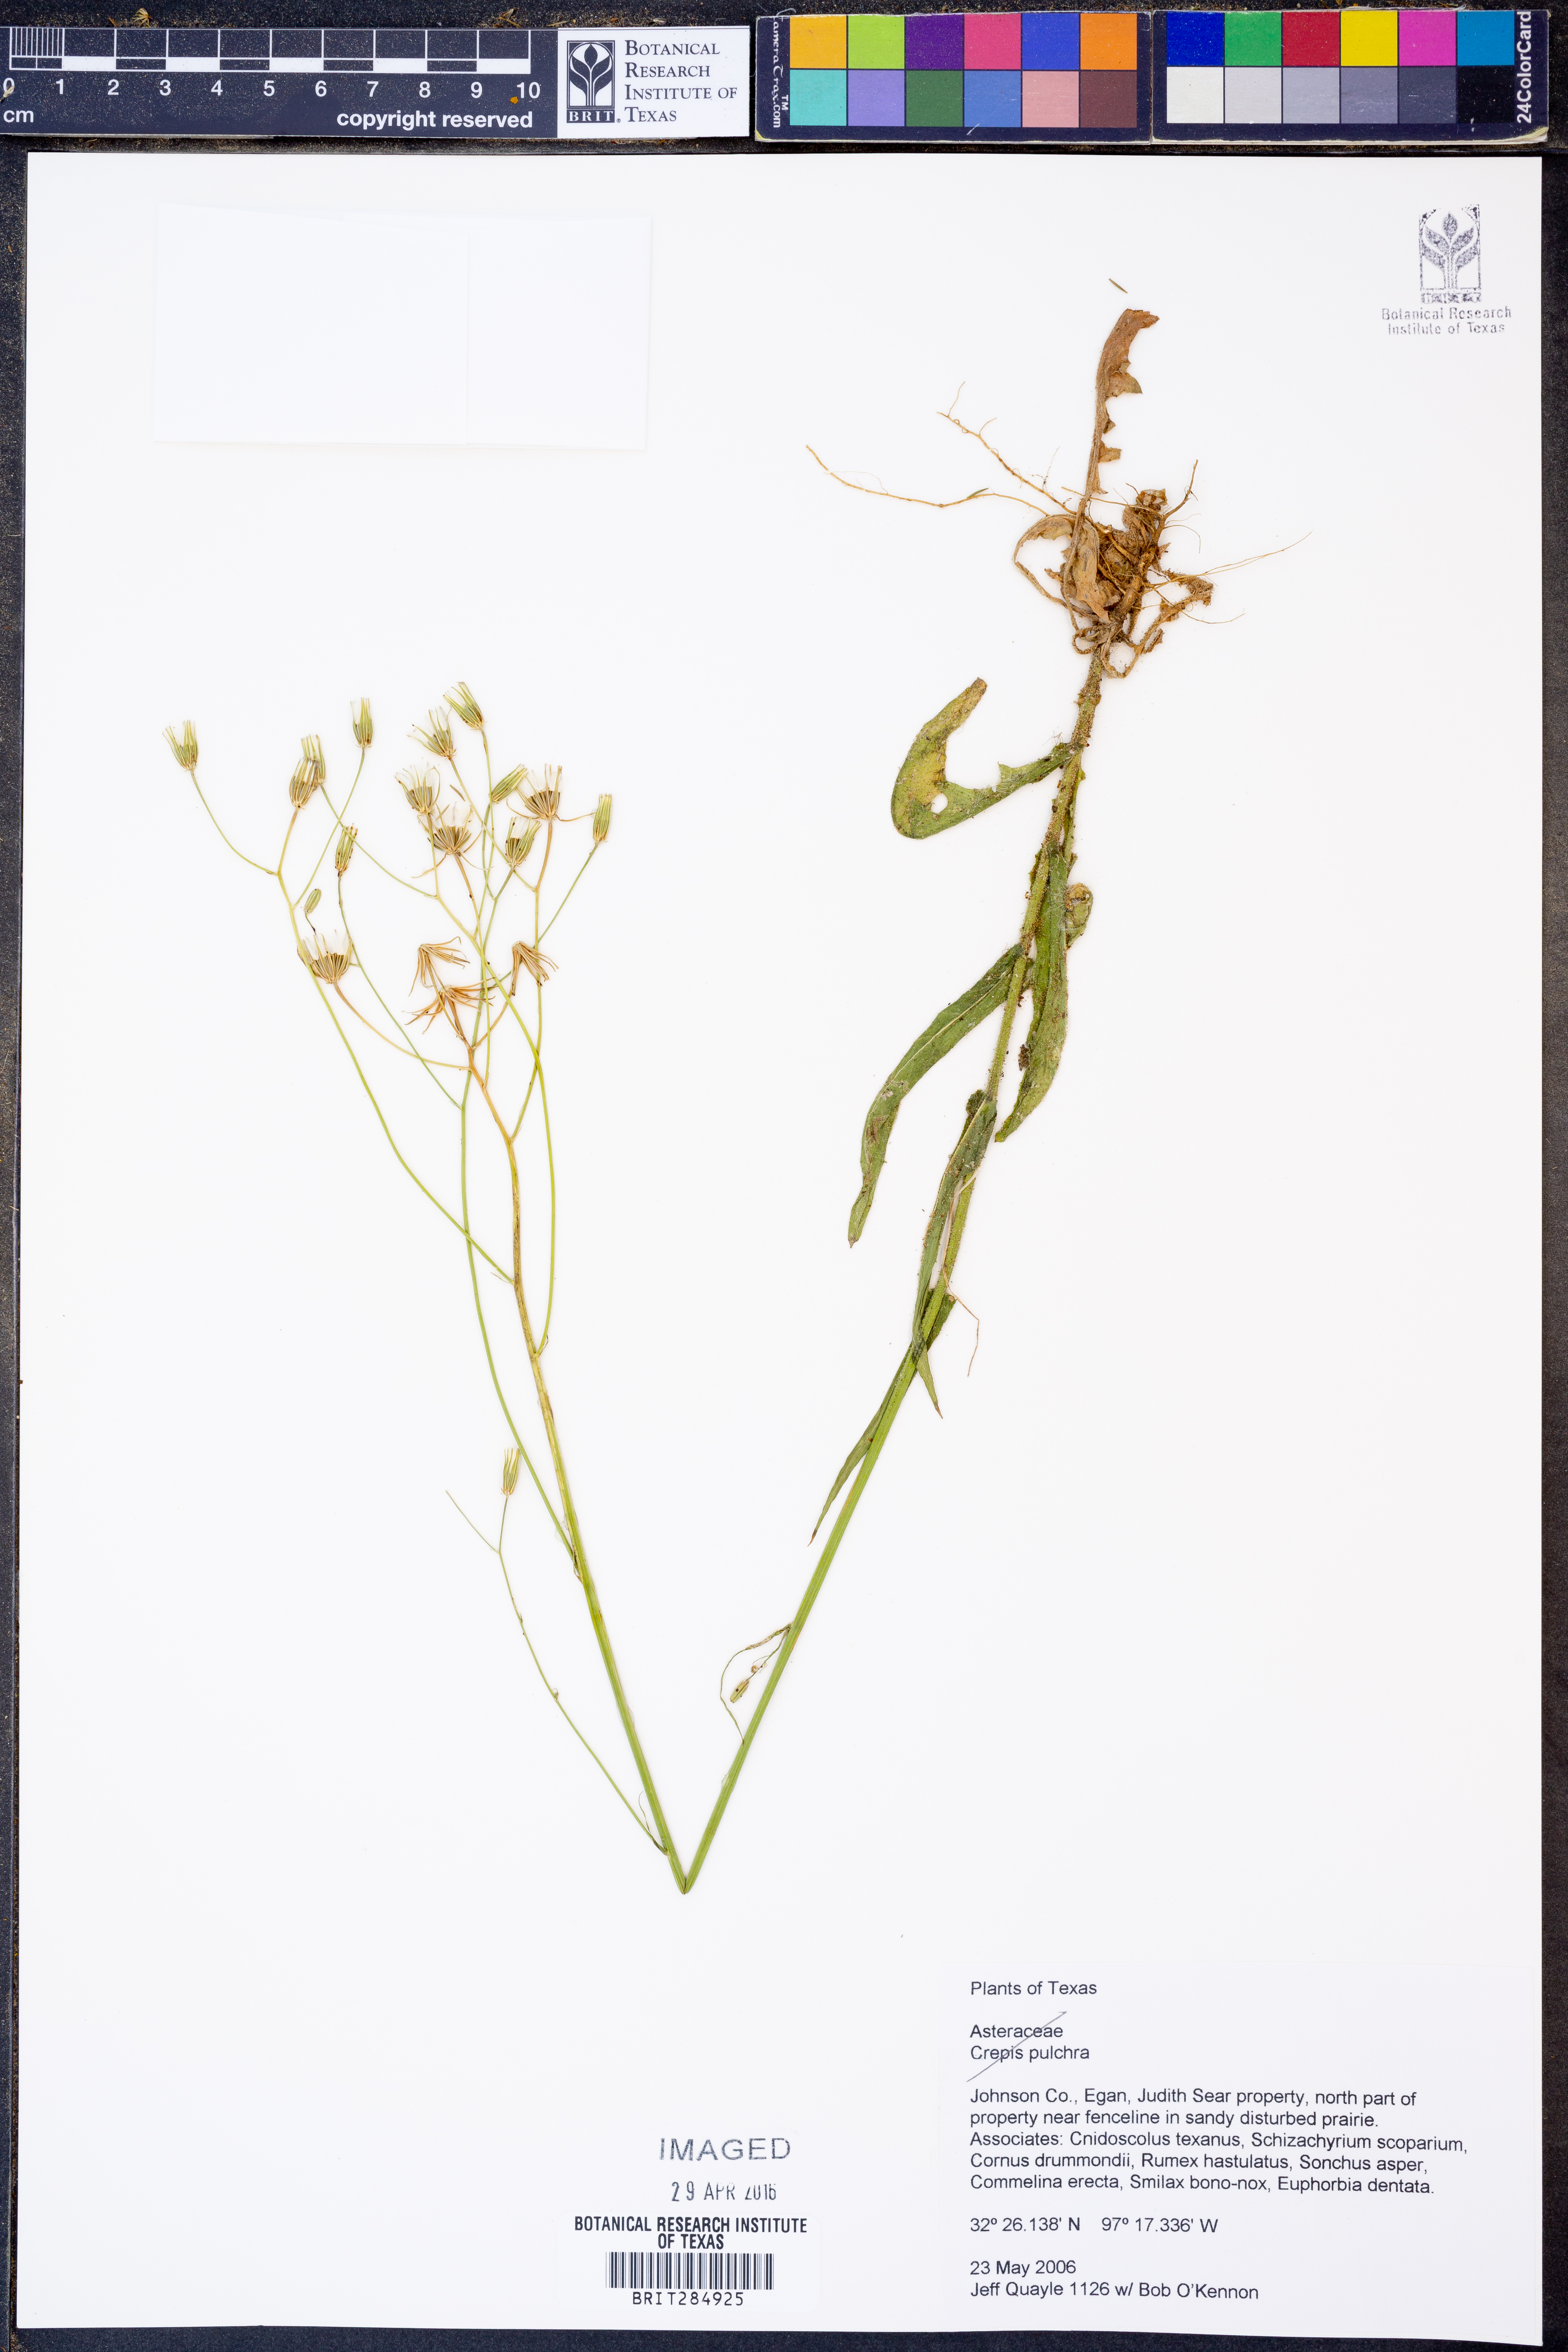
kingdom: Plantae
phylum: Tracheophyta
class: Magnoliopsida
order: Asterales
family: Asteraceae
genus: Crepis
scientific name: Crepis pulchra
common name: Hawk's-beard
